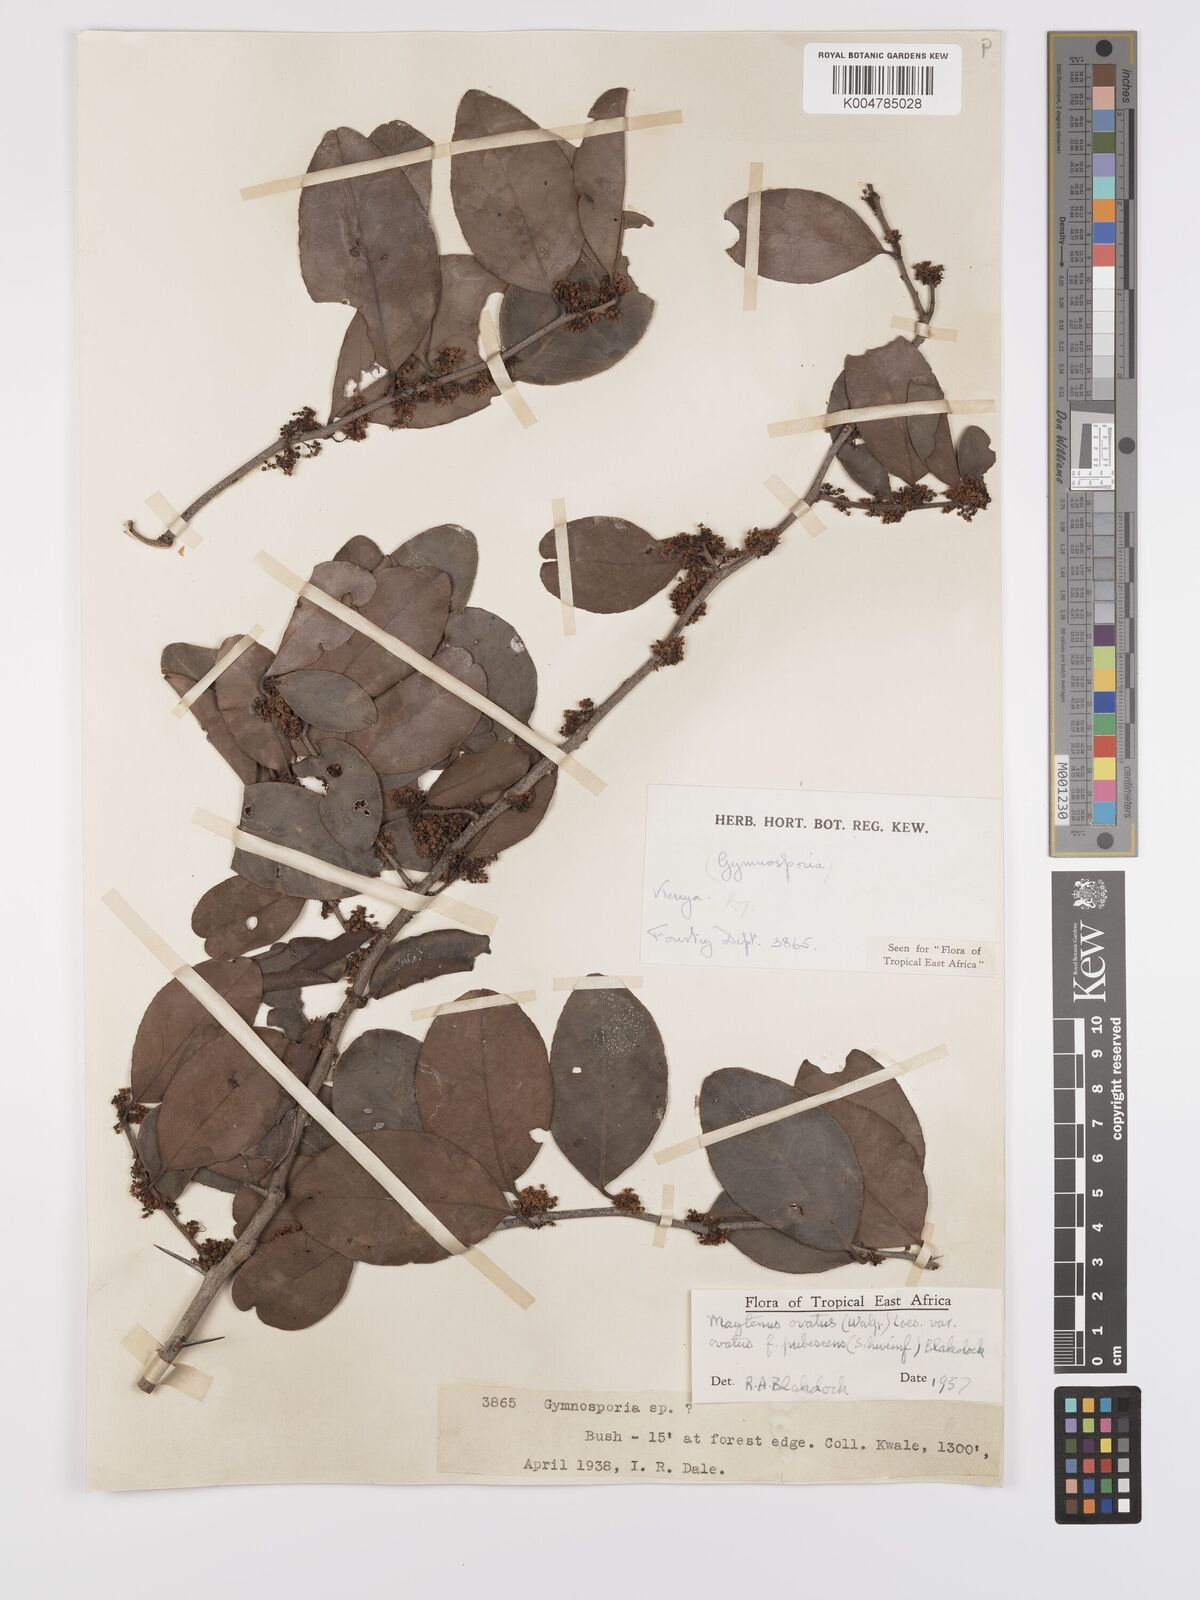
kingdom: Plantae
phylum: Tracheophyta
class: Magnoliopsida
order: Celastrales
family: Celastraceae
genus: Gymnosporia
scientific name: Gymnosporia buchananii
